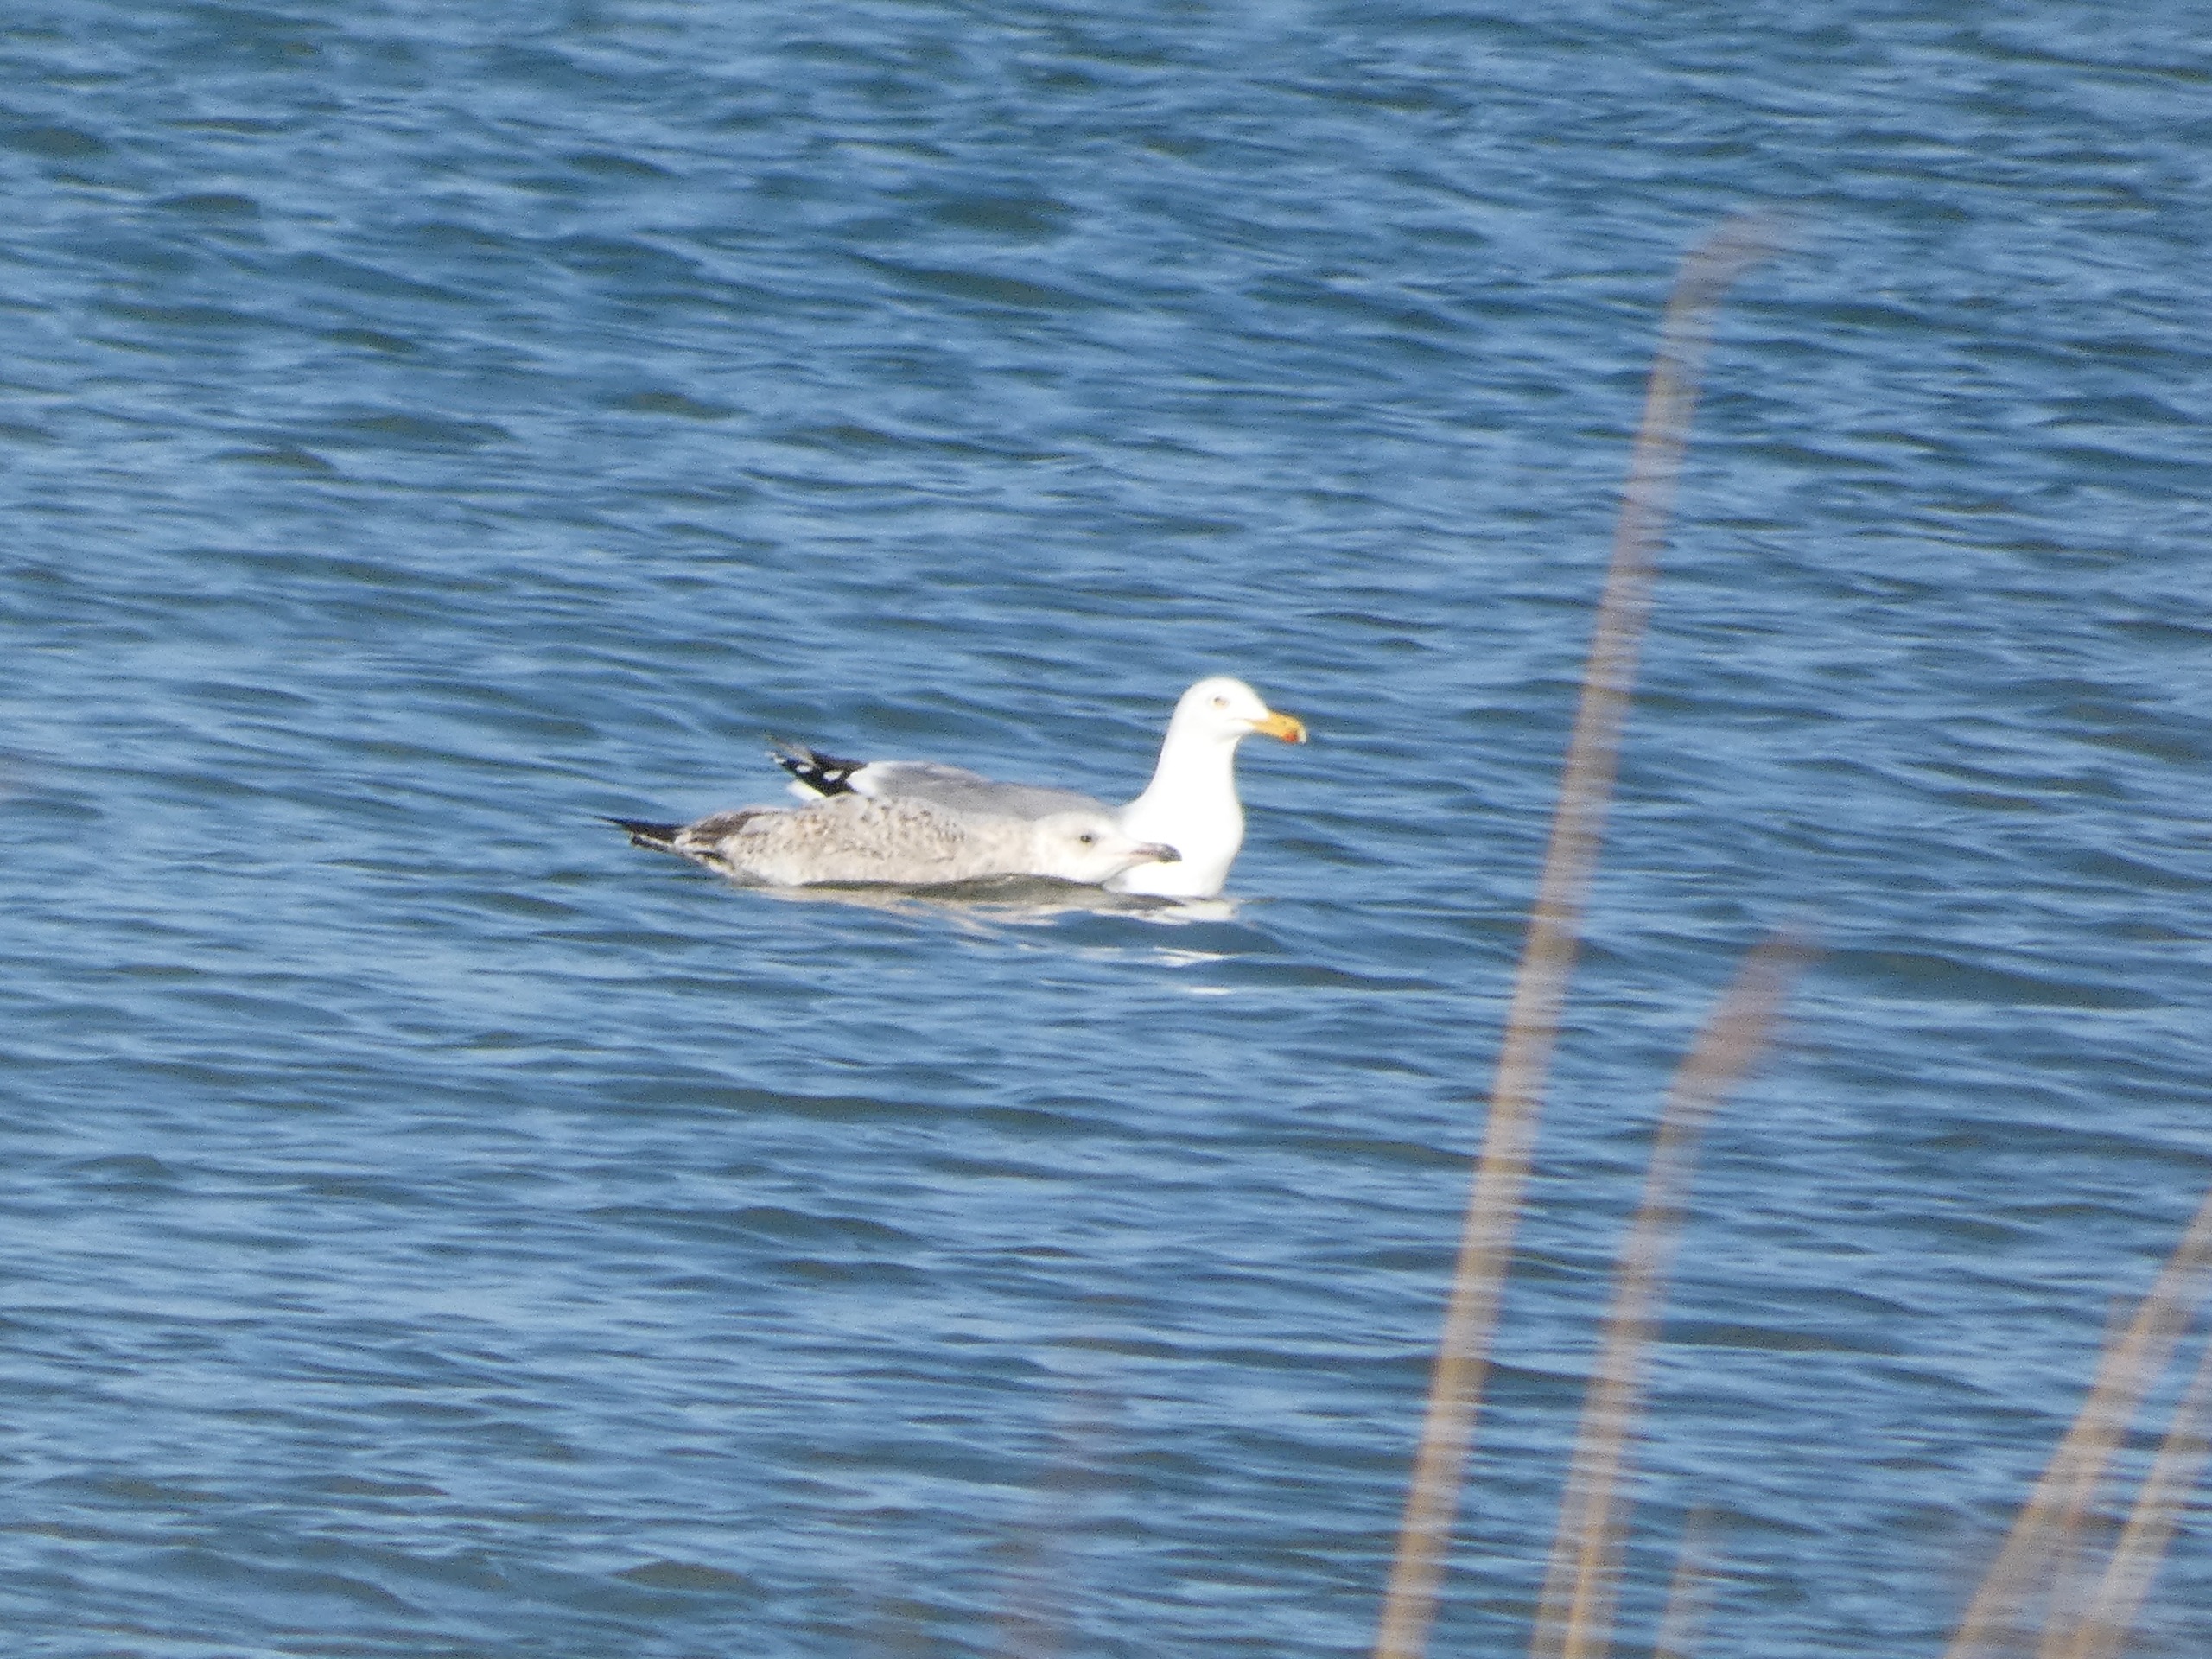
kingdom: Animalia
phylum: Chordata
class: Aves
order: Charadriiformes
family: Laridae
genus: Larus
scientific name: Larus argentatus
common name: Sølvmåge
